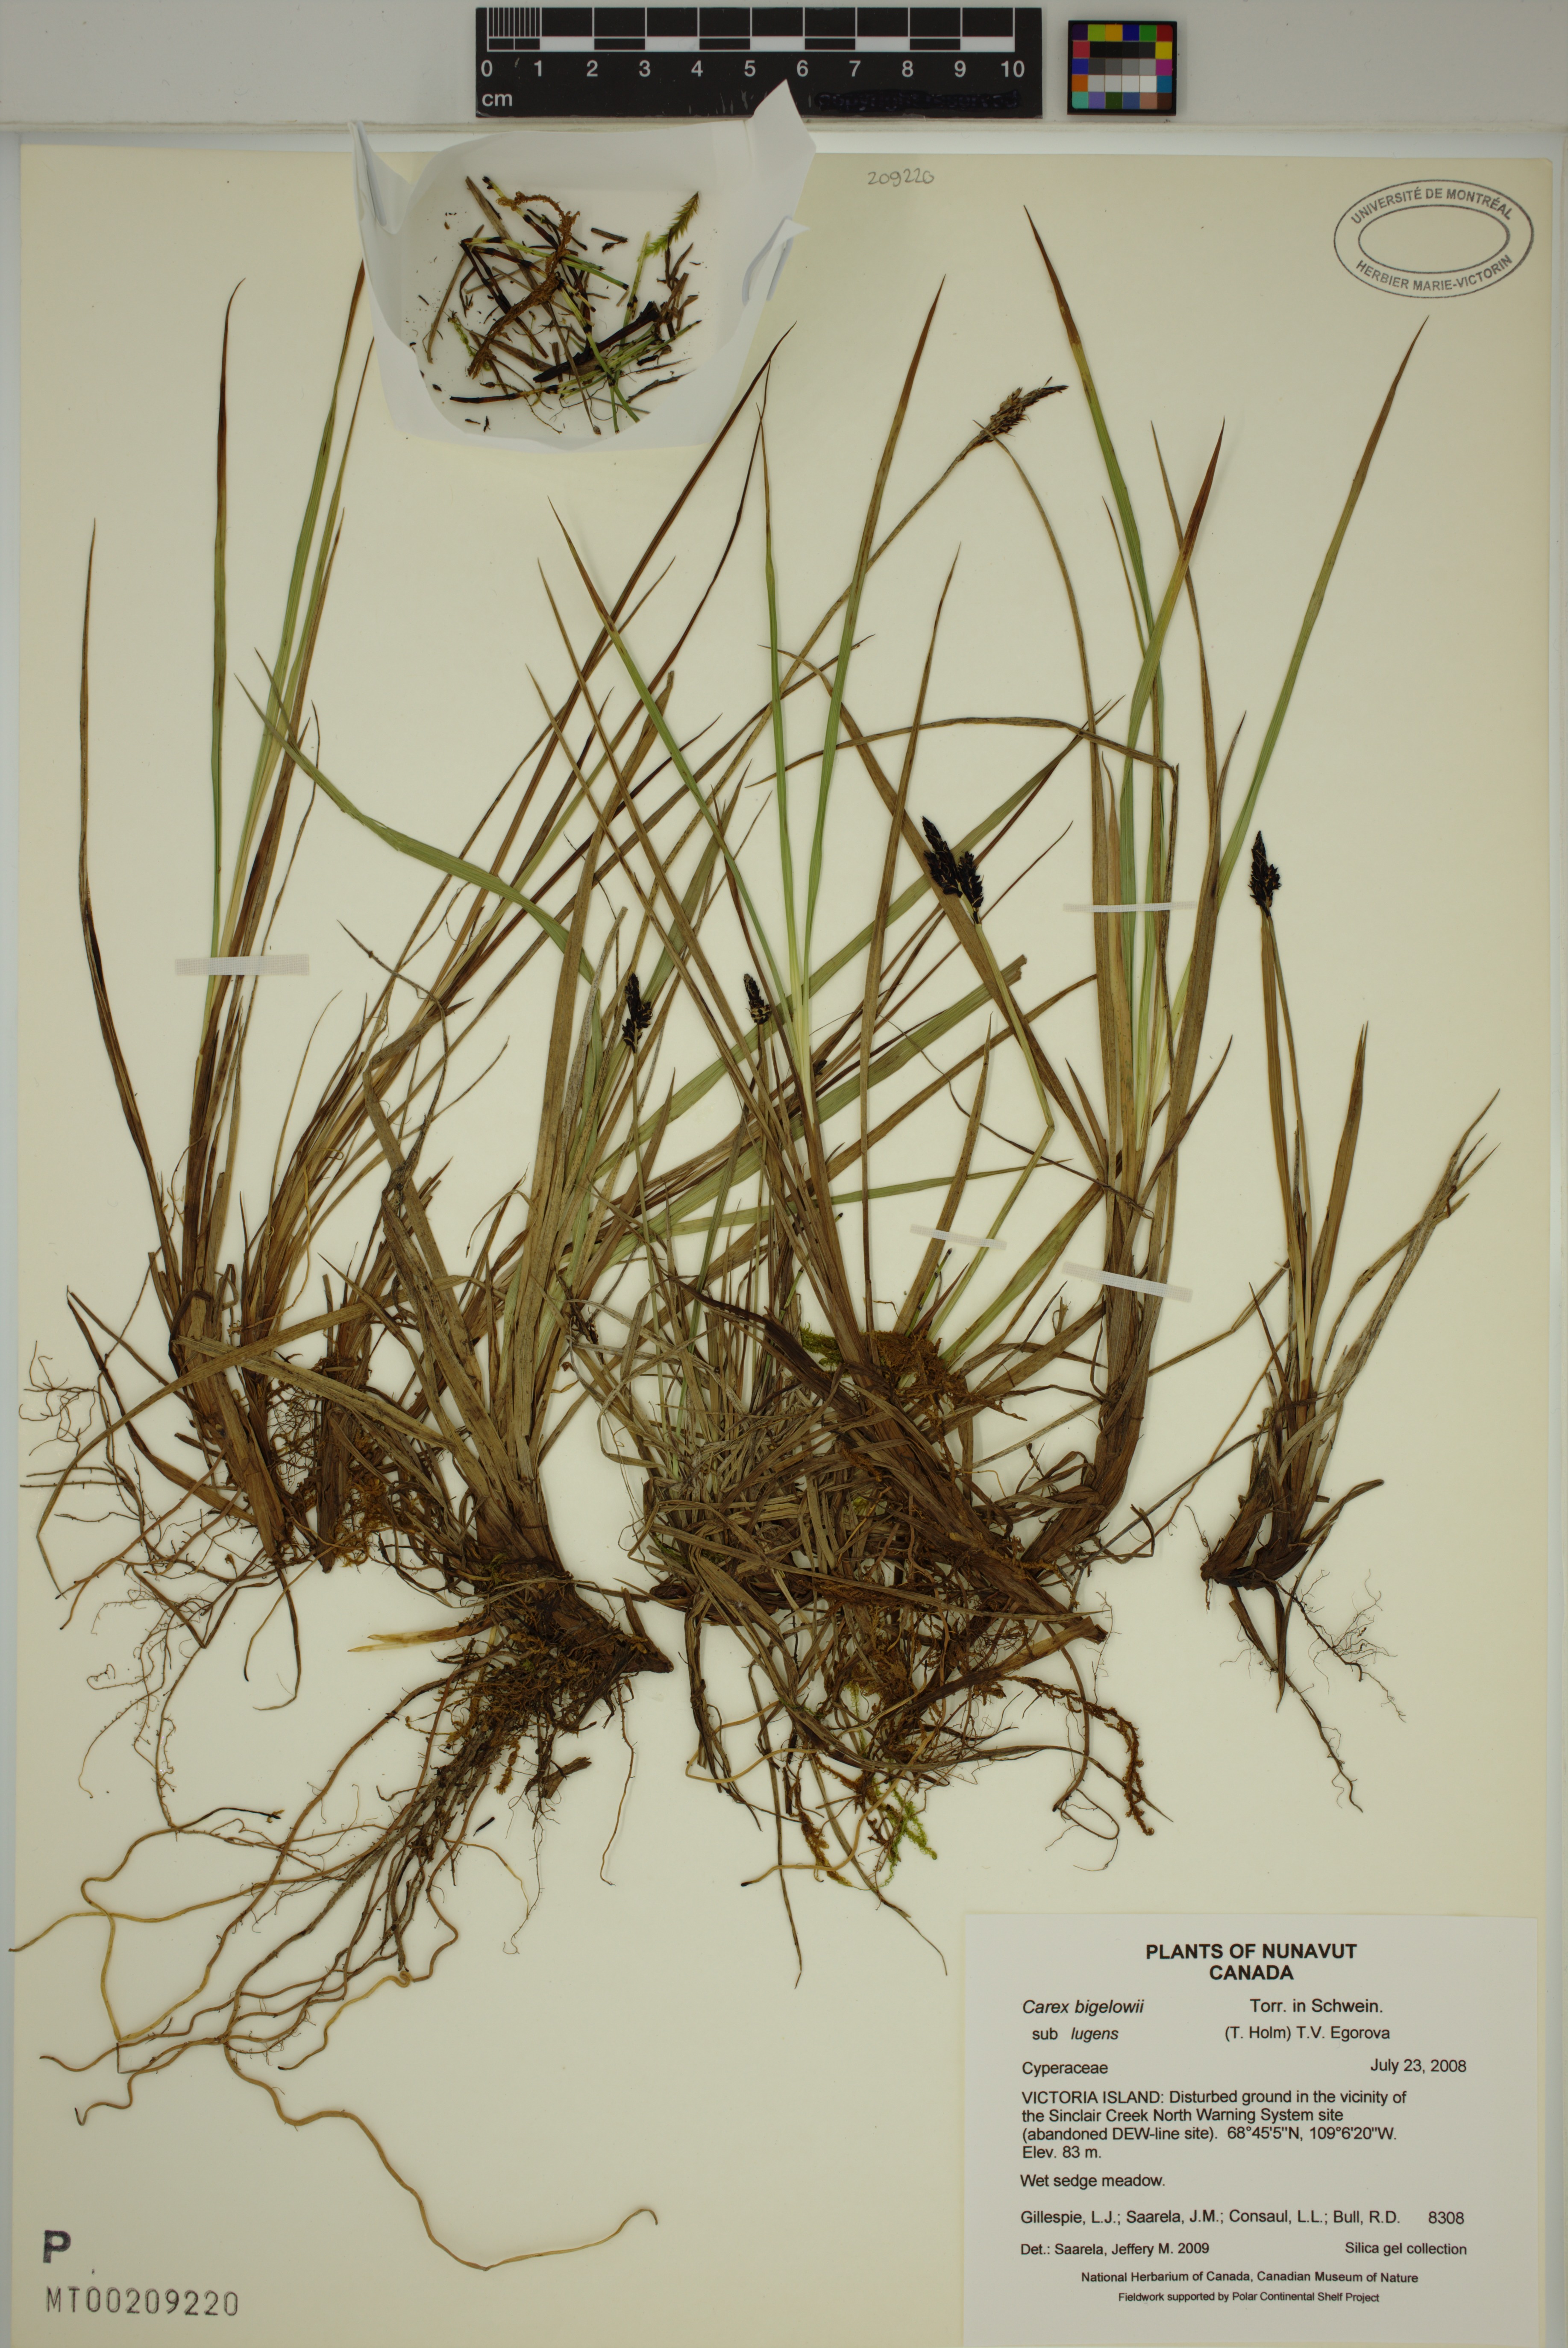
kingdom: Plantae
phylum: Tracheophyta
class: Liliopsida
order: Poales
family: Cyperaceae
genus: Carex
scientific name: Carex bigelowii
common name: Stiff sedge
